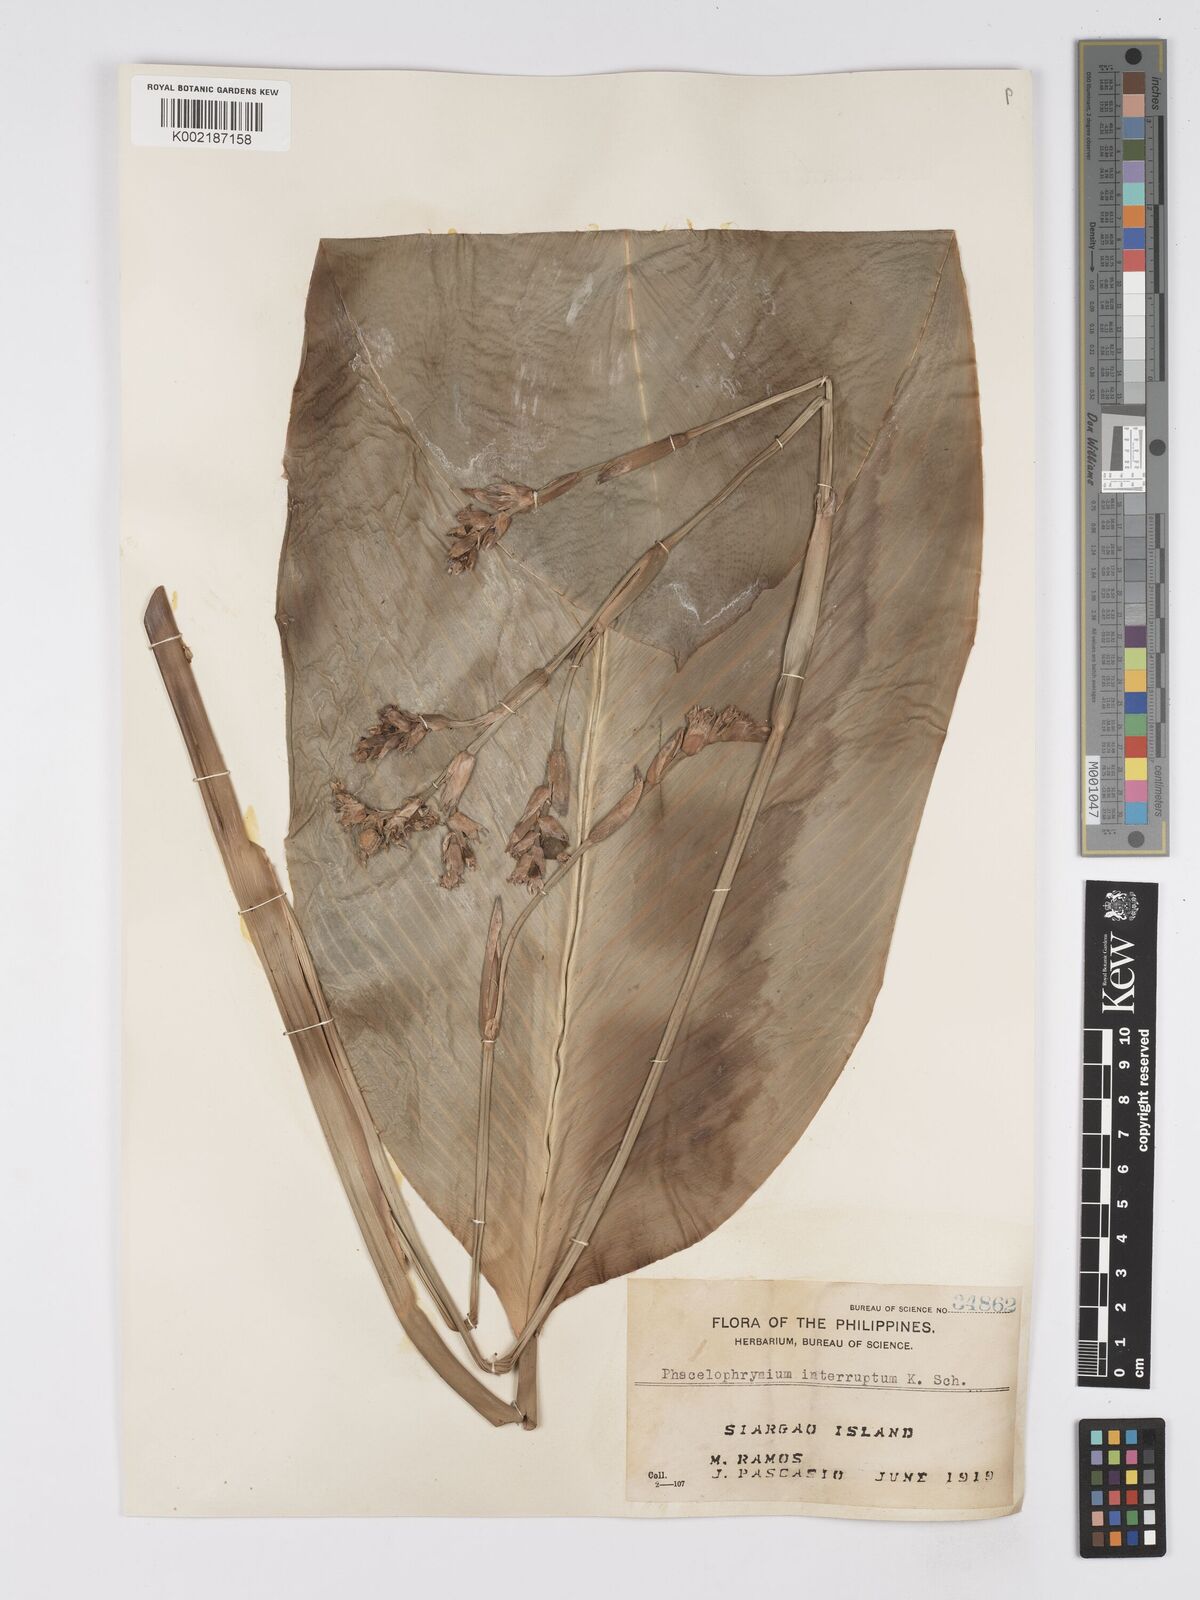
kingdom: Plantae
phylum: Tracheophyta
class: Liliopsida
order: Zingiberales
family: Marantaceae
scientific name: Marantaceae
